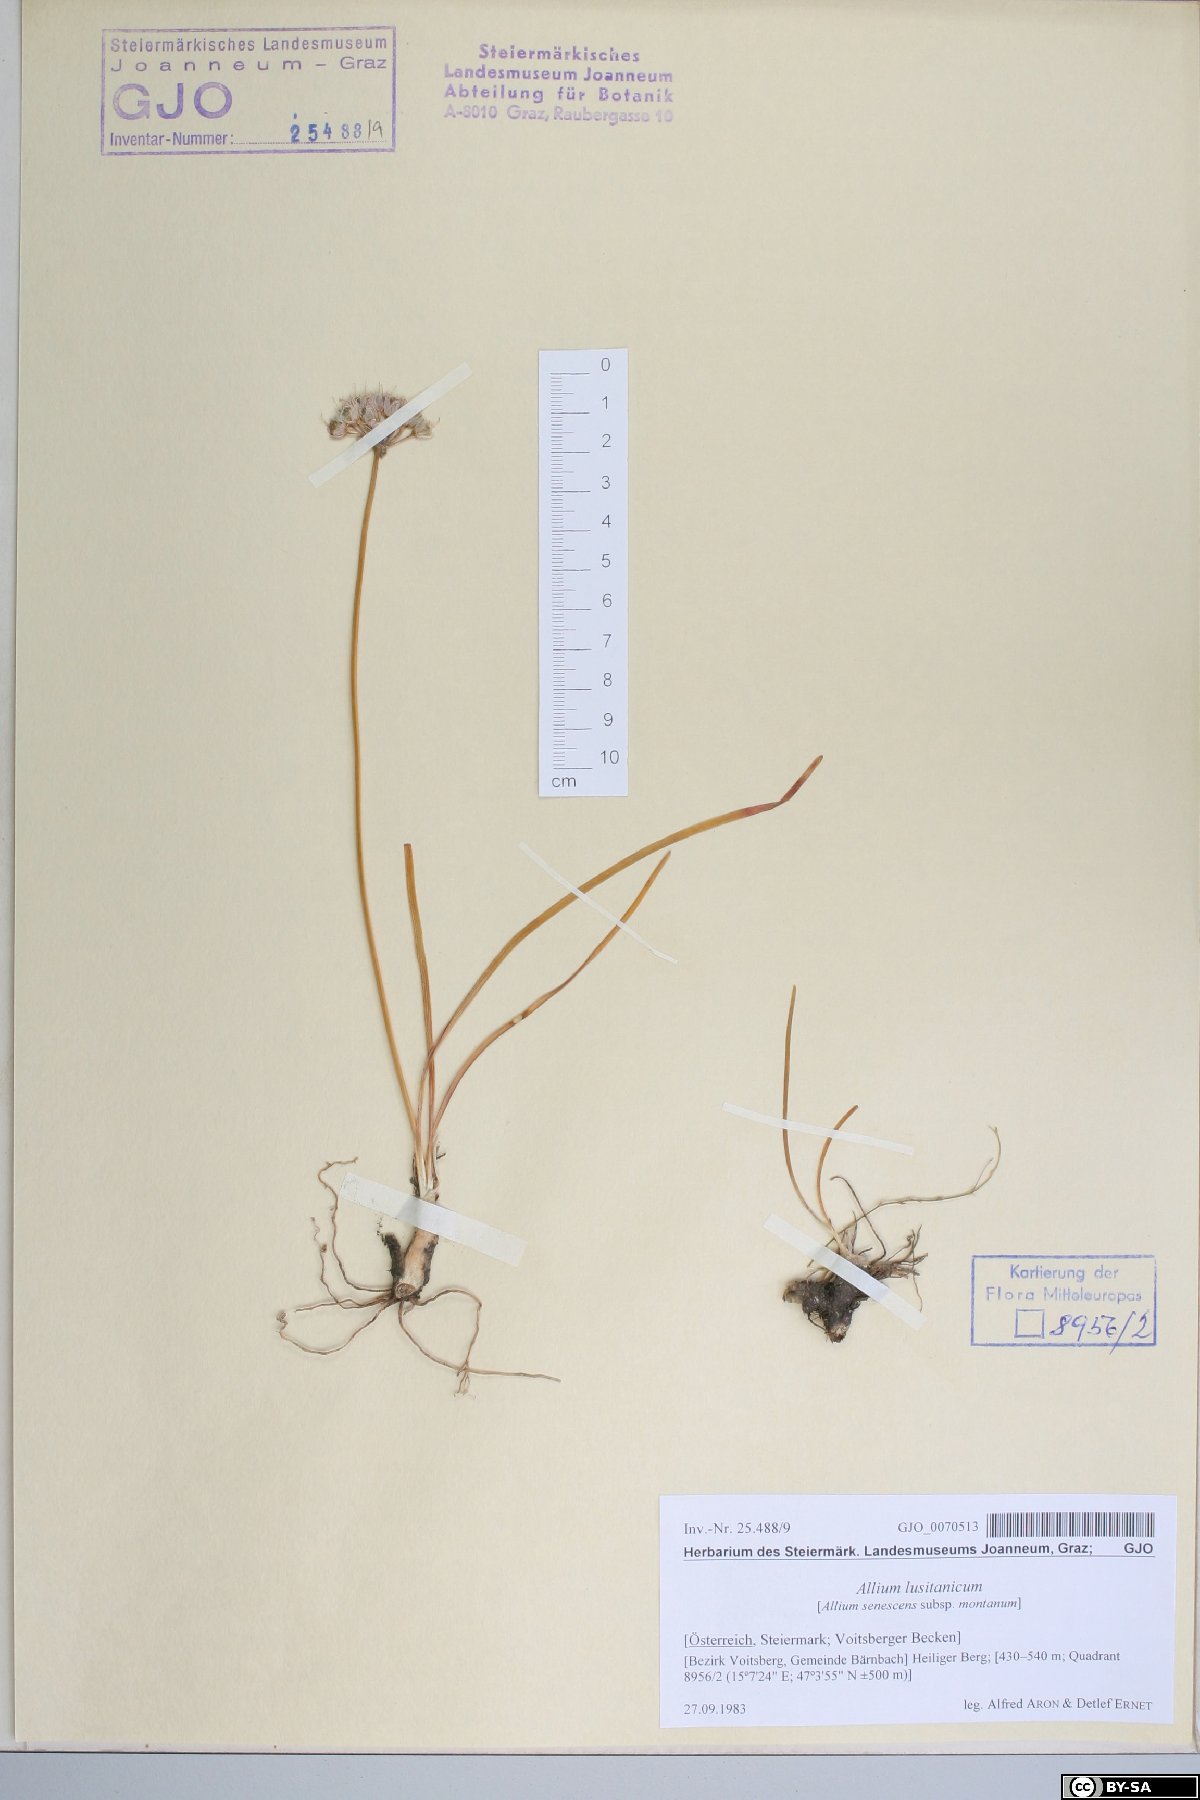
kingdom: Plantae
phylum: Tracheophyta
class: Liliopsida
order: Asparagales
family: Amaryllidaceae
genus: Allium
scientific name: Allium lusitanicum
